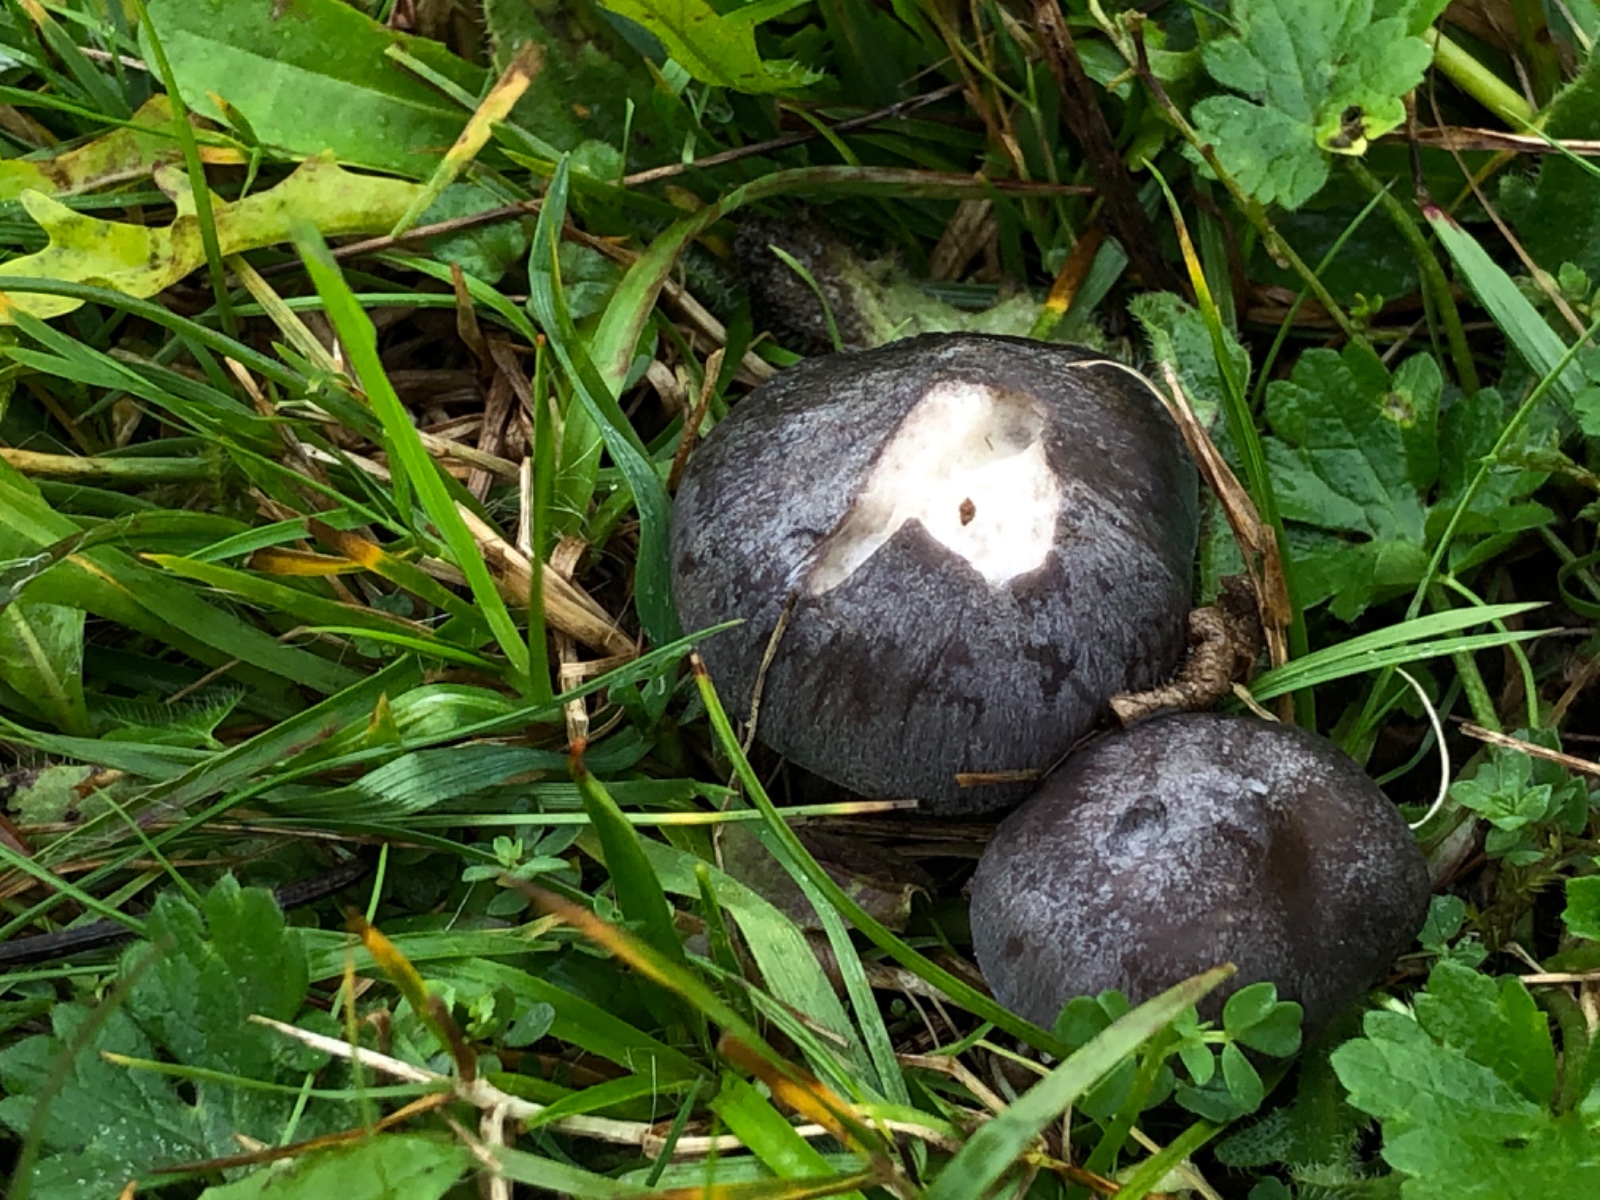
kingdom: Fungi
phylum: Basidiomycota
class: Agaricomycetes
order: Agaricales
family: Entolomataceae
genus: Entoloma
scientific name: Entoloma madidum
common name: indigo-rødblad
